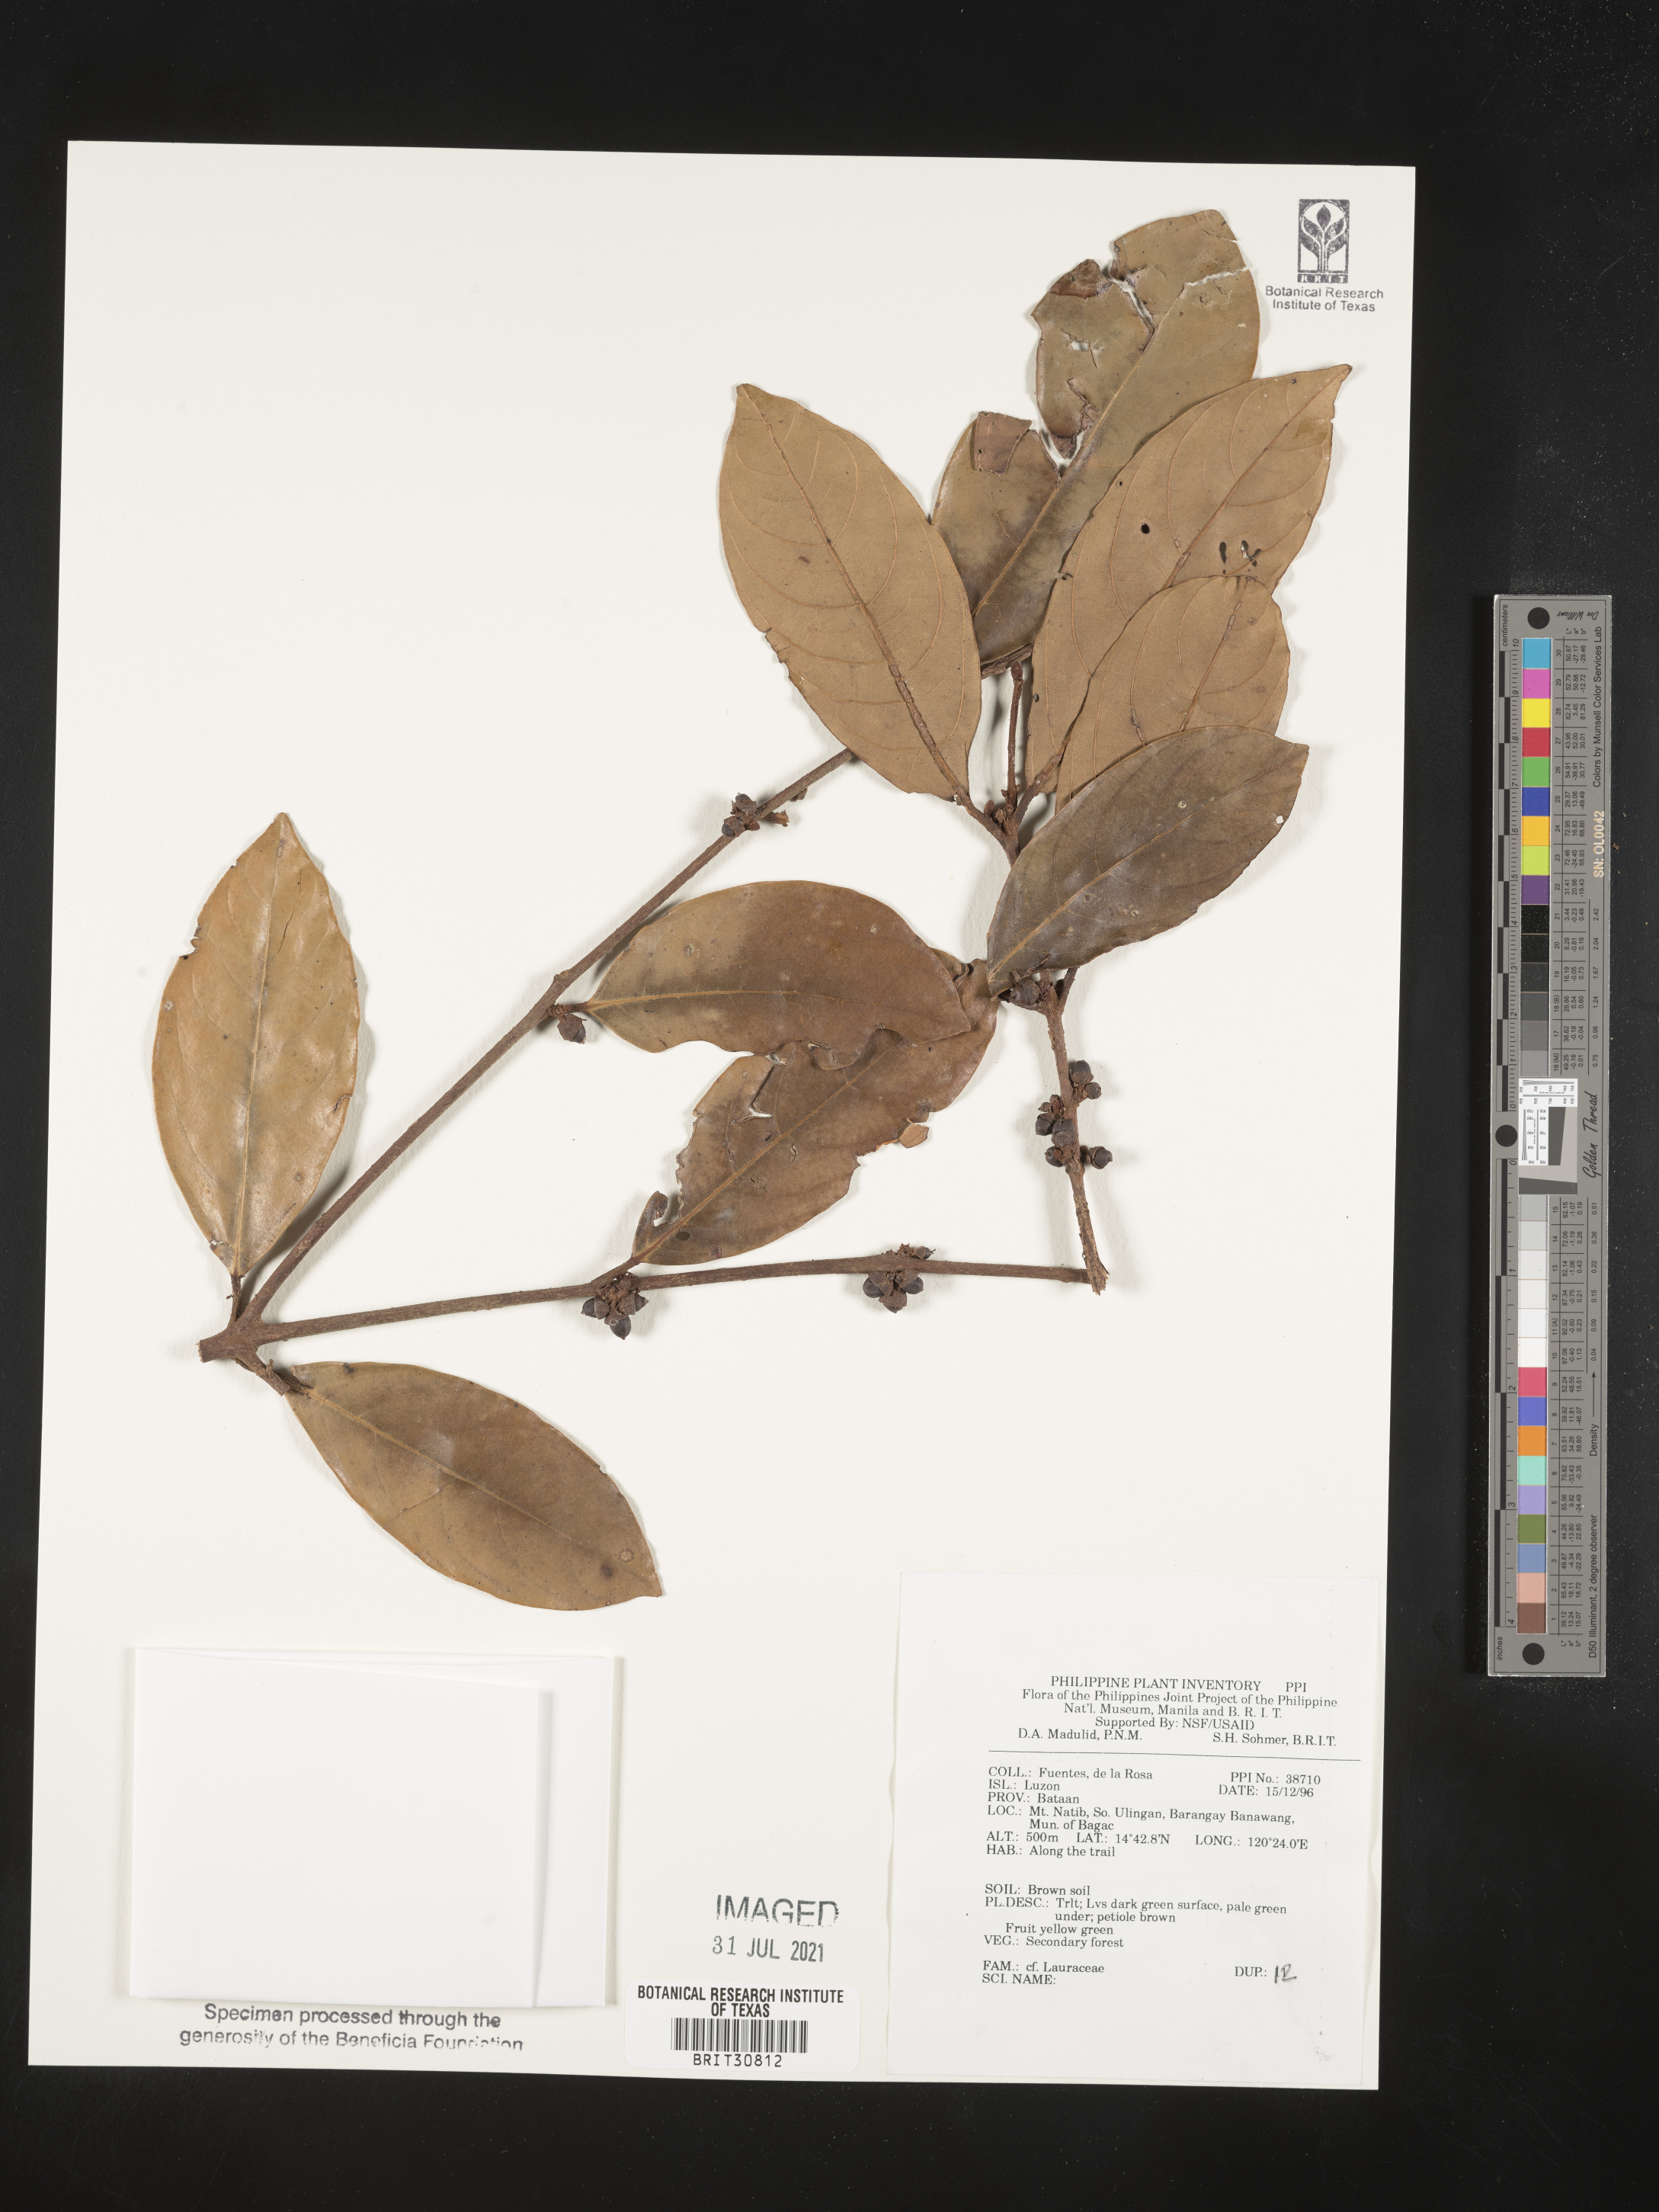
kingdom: Plantae
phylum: Tracheophyta
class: Magnoliopsida
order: Laurales
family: Lauraceae
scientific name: Lauraceae
